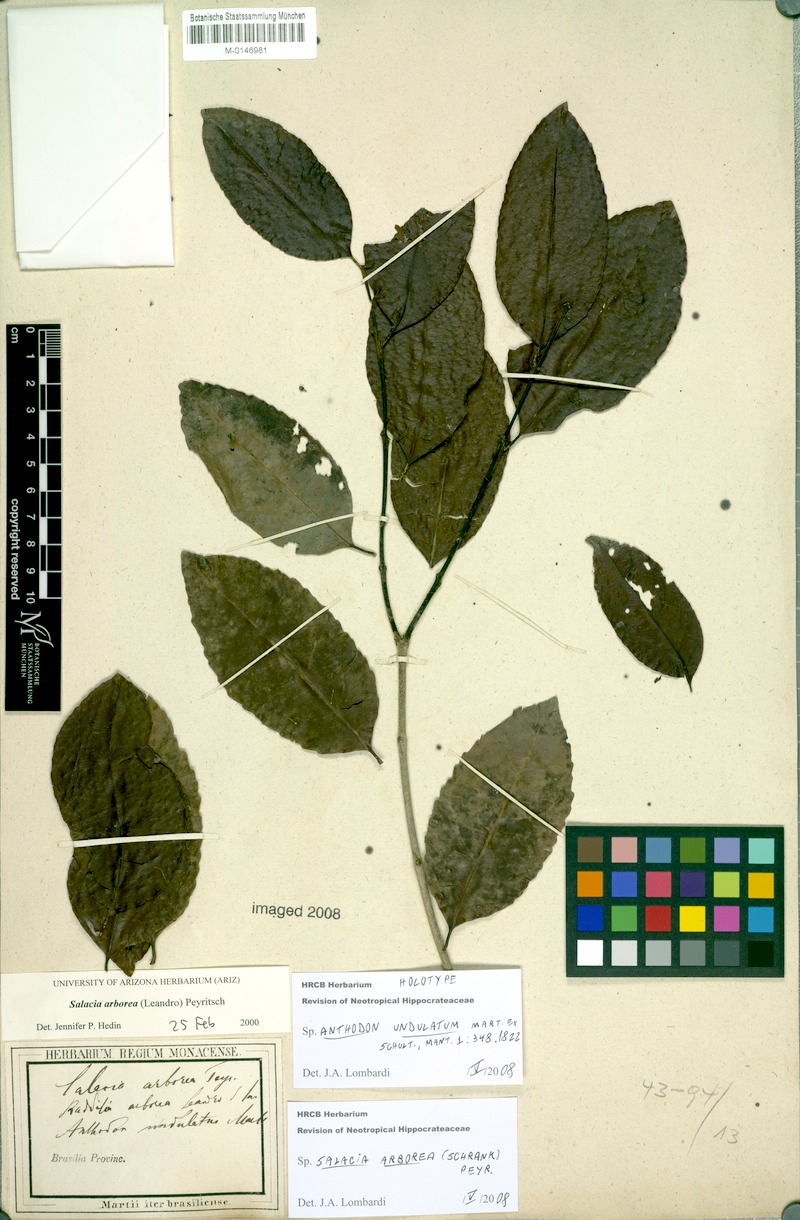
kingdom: Plantae
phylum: Tracheophyta
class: Magnoliopsida
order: Celastrales
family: Celastraceae
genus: Salacia
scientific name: Salacia arborea
